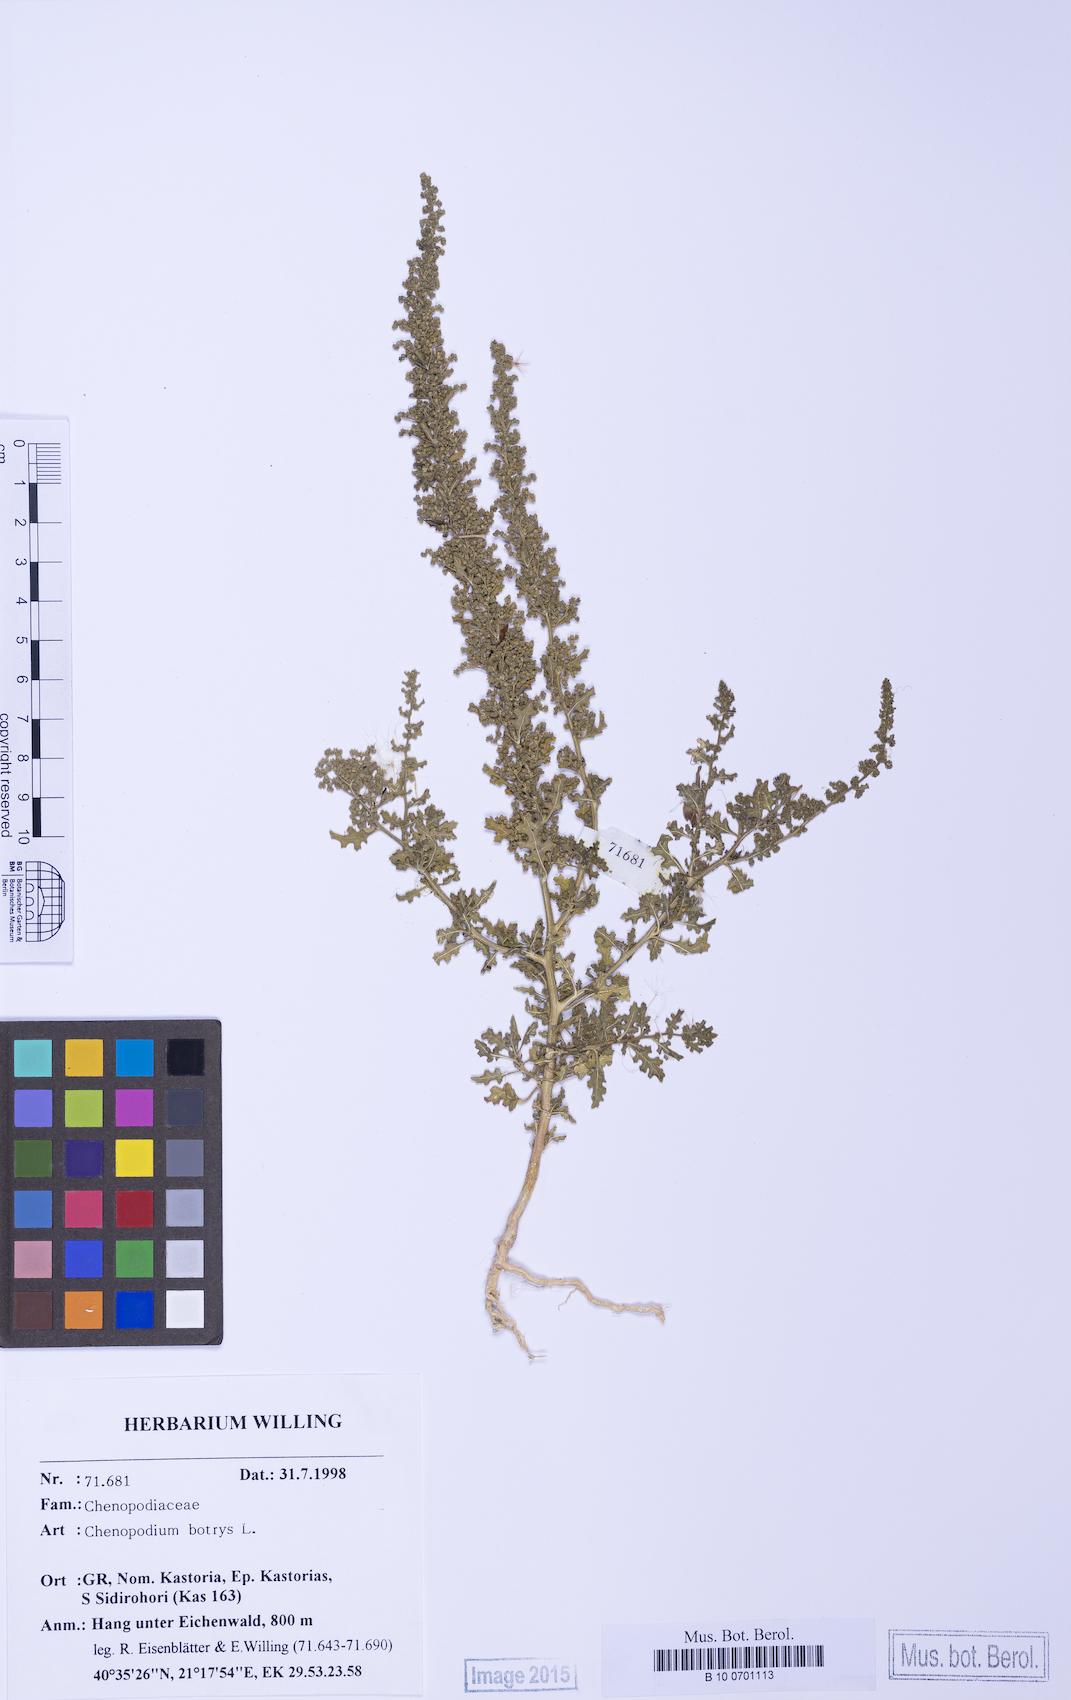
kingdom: Plantae
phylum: Tracheophyta
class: Magnoliopsida
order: Caryophyllales
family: Amaranthaceae
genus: Dysphania
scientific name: Dysphania botrys
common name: Feather-geranium
